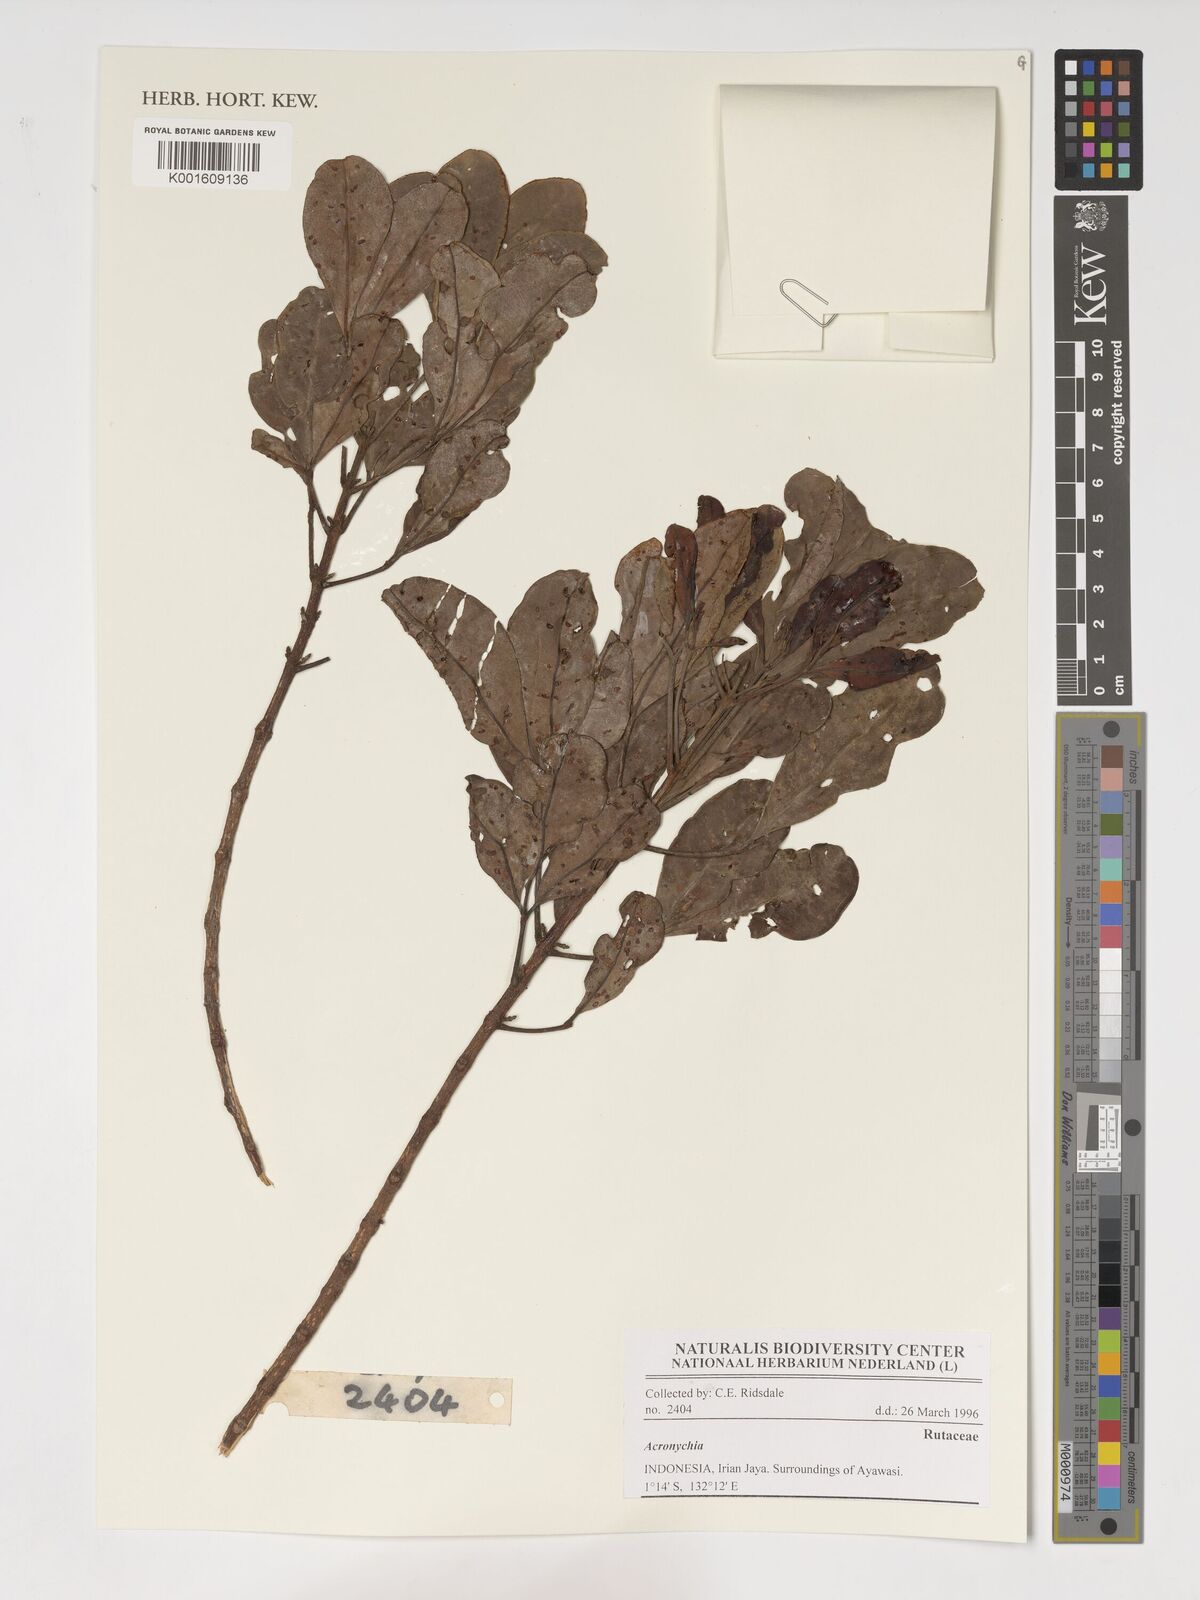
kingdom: Plantae
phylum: Tracheophyta
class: Magnoliopsida
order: Sapindales
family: Rutaceae
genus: Acronychia
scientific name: Acronychia
